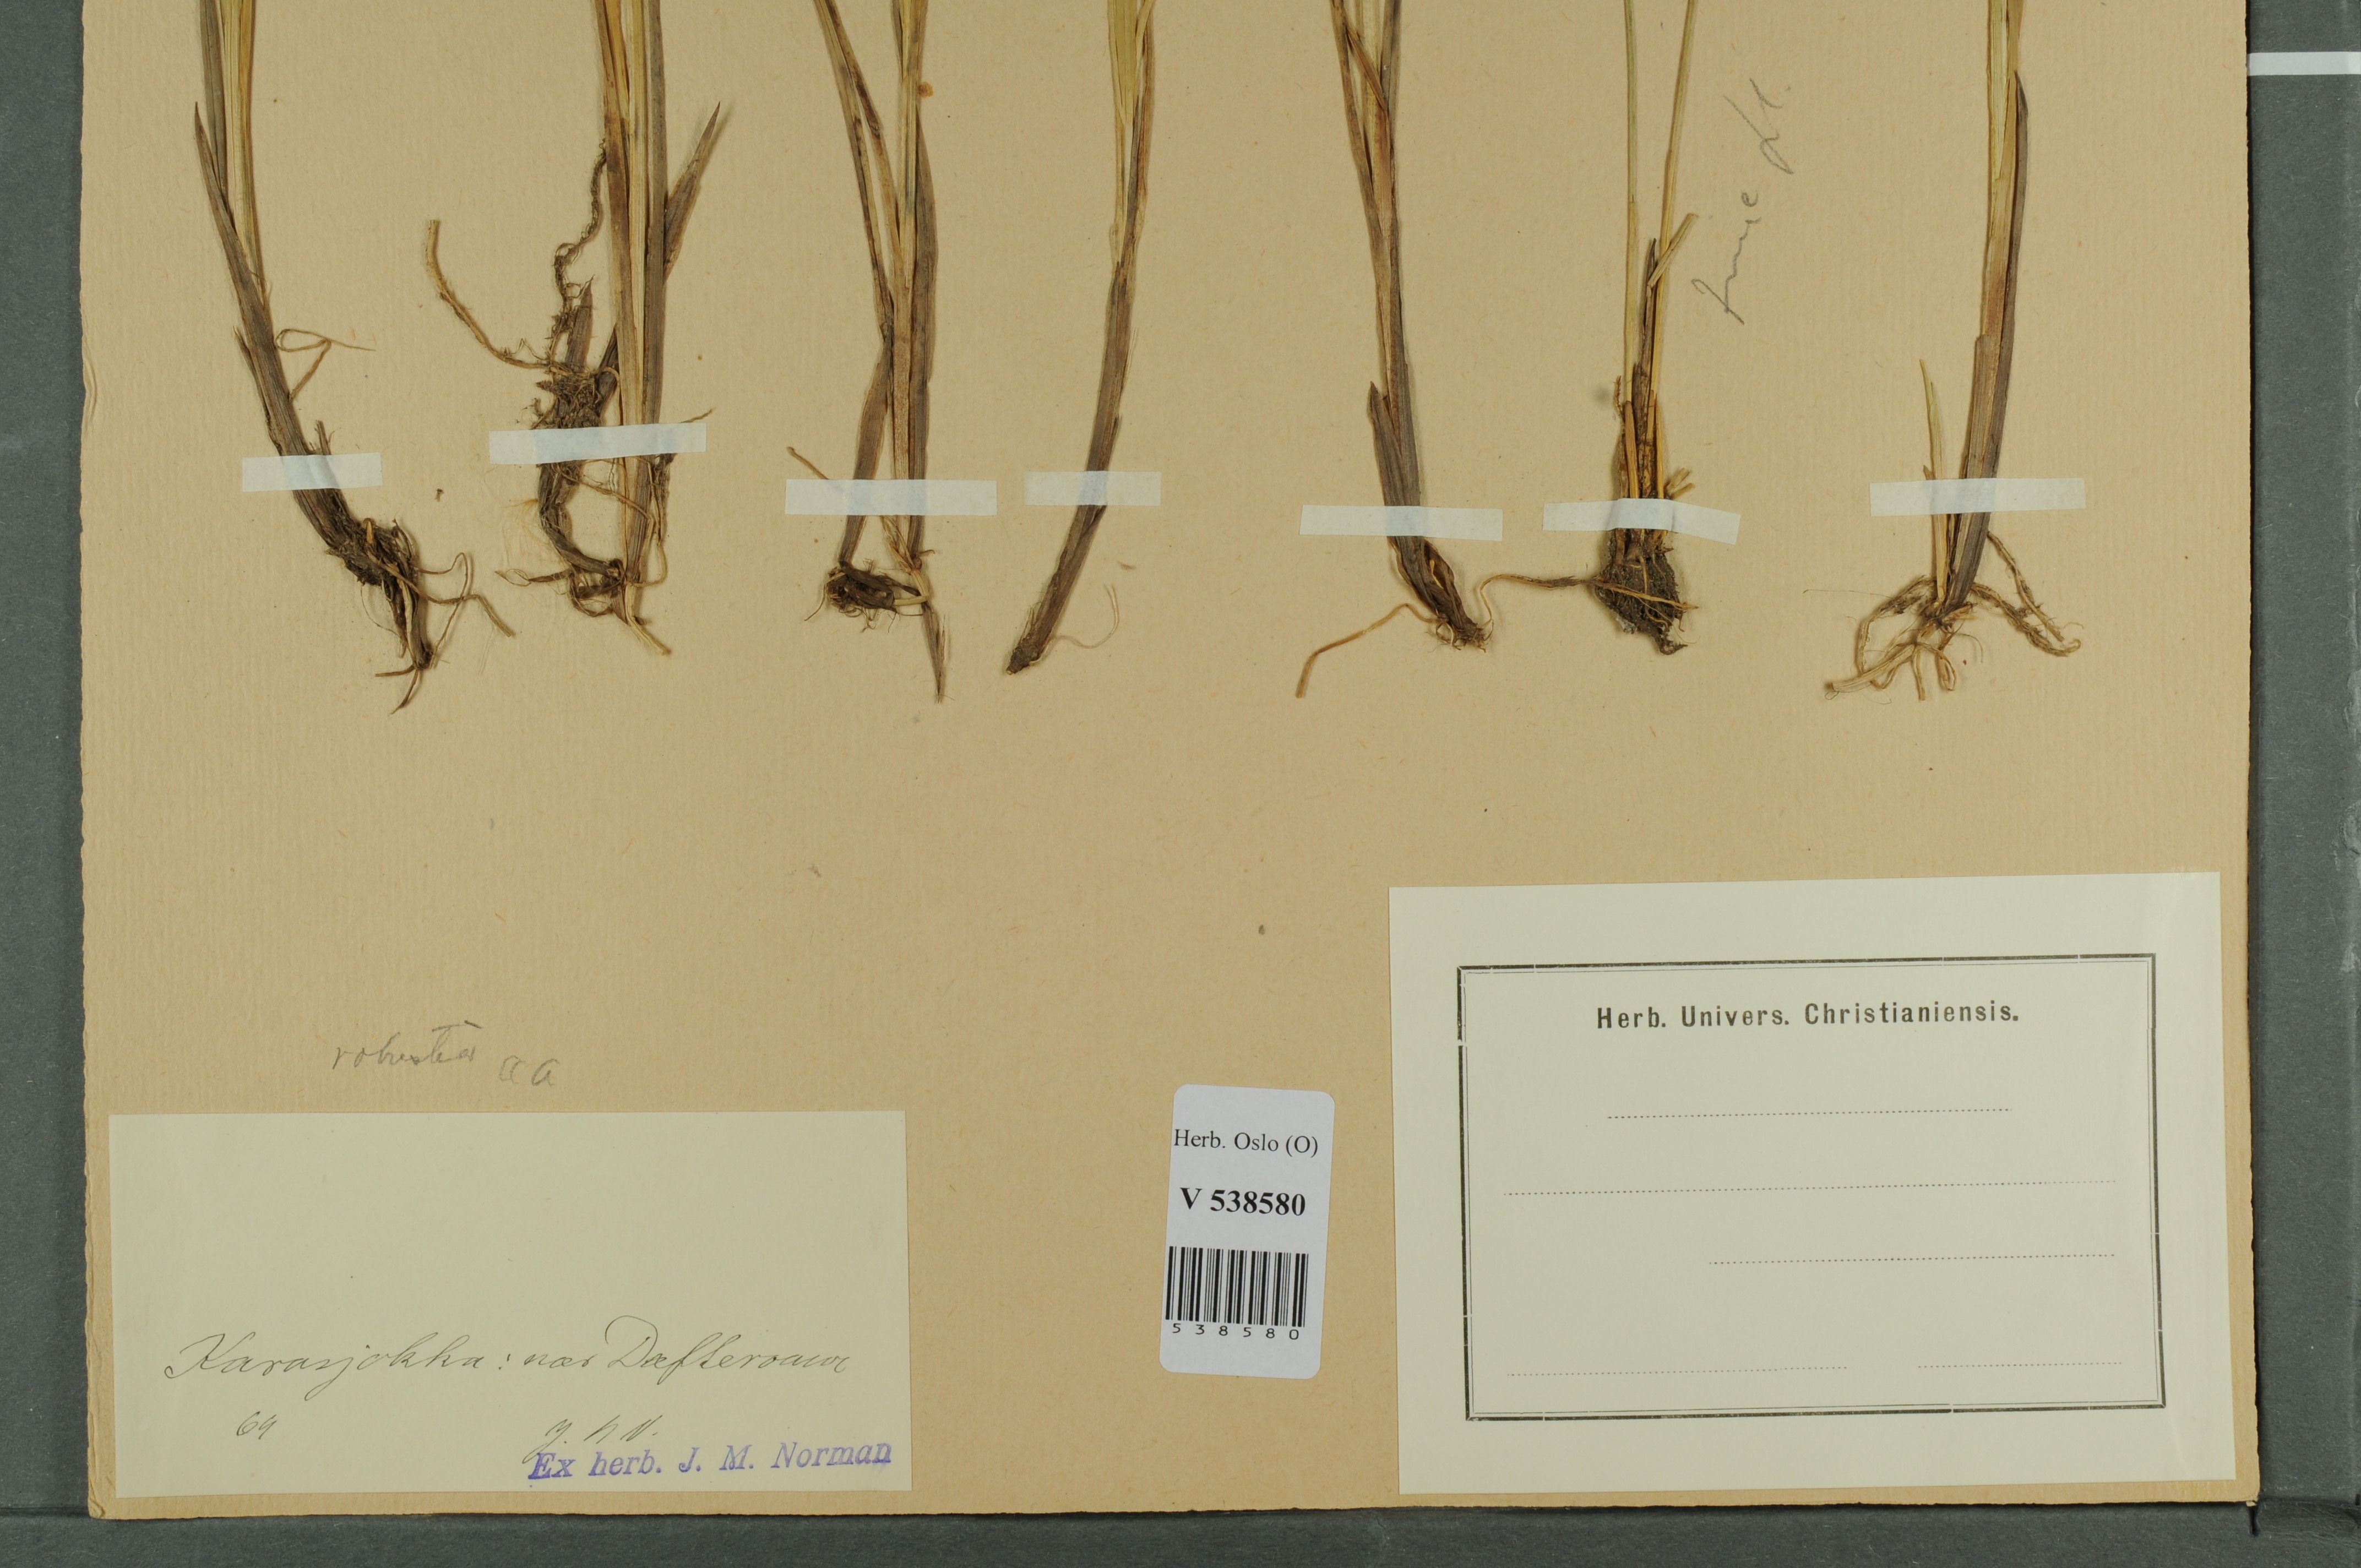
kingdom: Plantae
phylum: Tracheophyta
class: Liliopsida
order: Poales
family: Cyperaceae
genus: Carex
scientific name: Carex canescens
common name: White sedge
